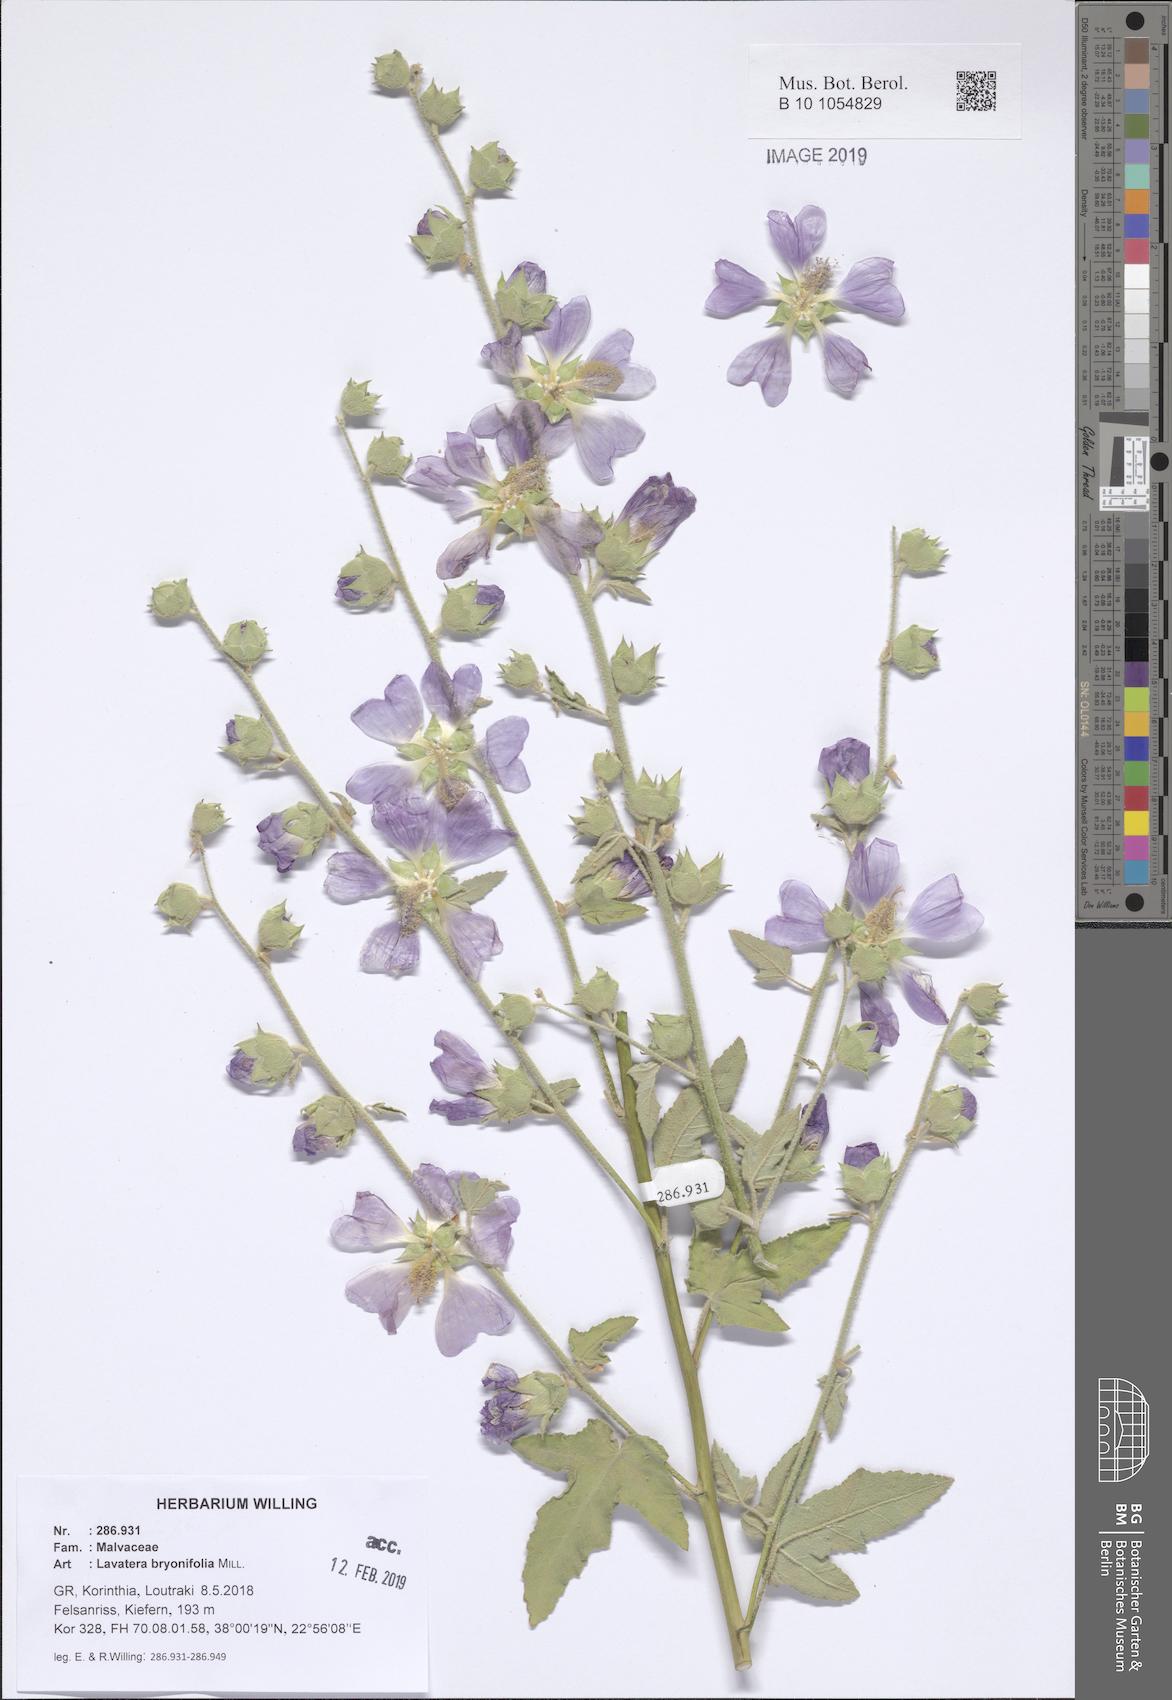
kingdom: Plantae
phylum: Tracheophyta
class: Magnoliopsida
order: Malvales
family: Malvaceae
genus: Malva
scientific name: Malva unguiculata
